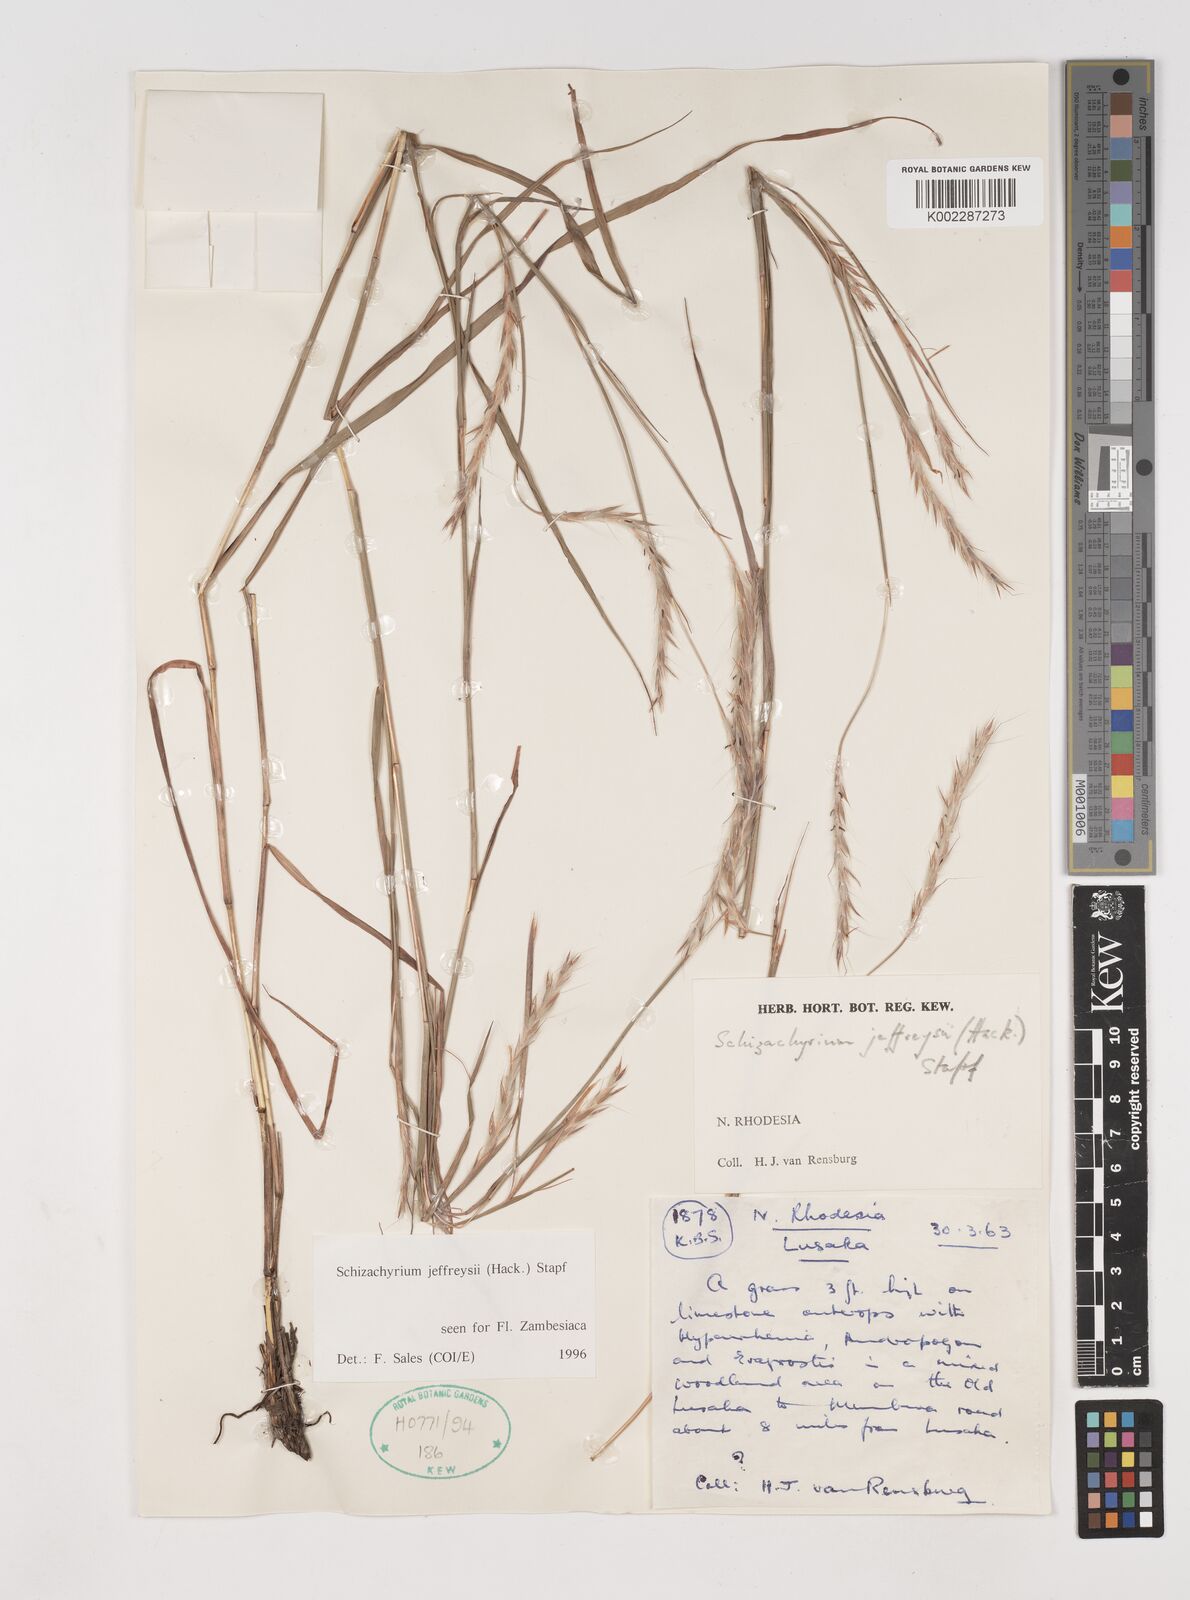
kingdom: Plantae
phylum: Tracheophyta
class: Liliopsida
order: Poales
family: Poaceae
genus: Schizachyrium
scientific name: Schizachyrium jeffreysii
